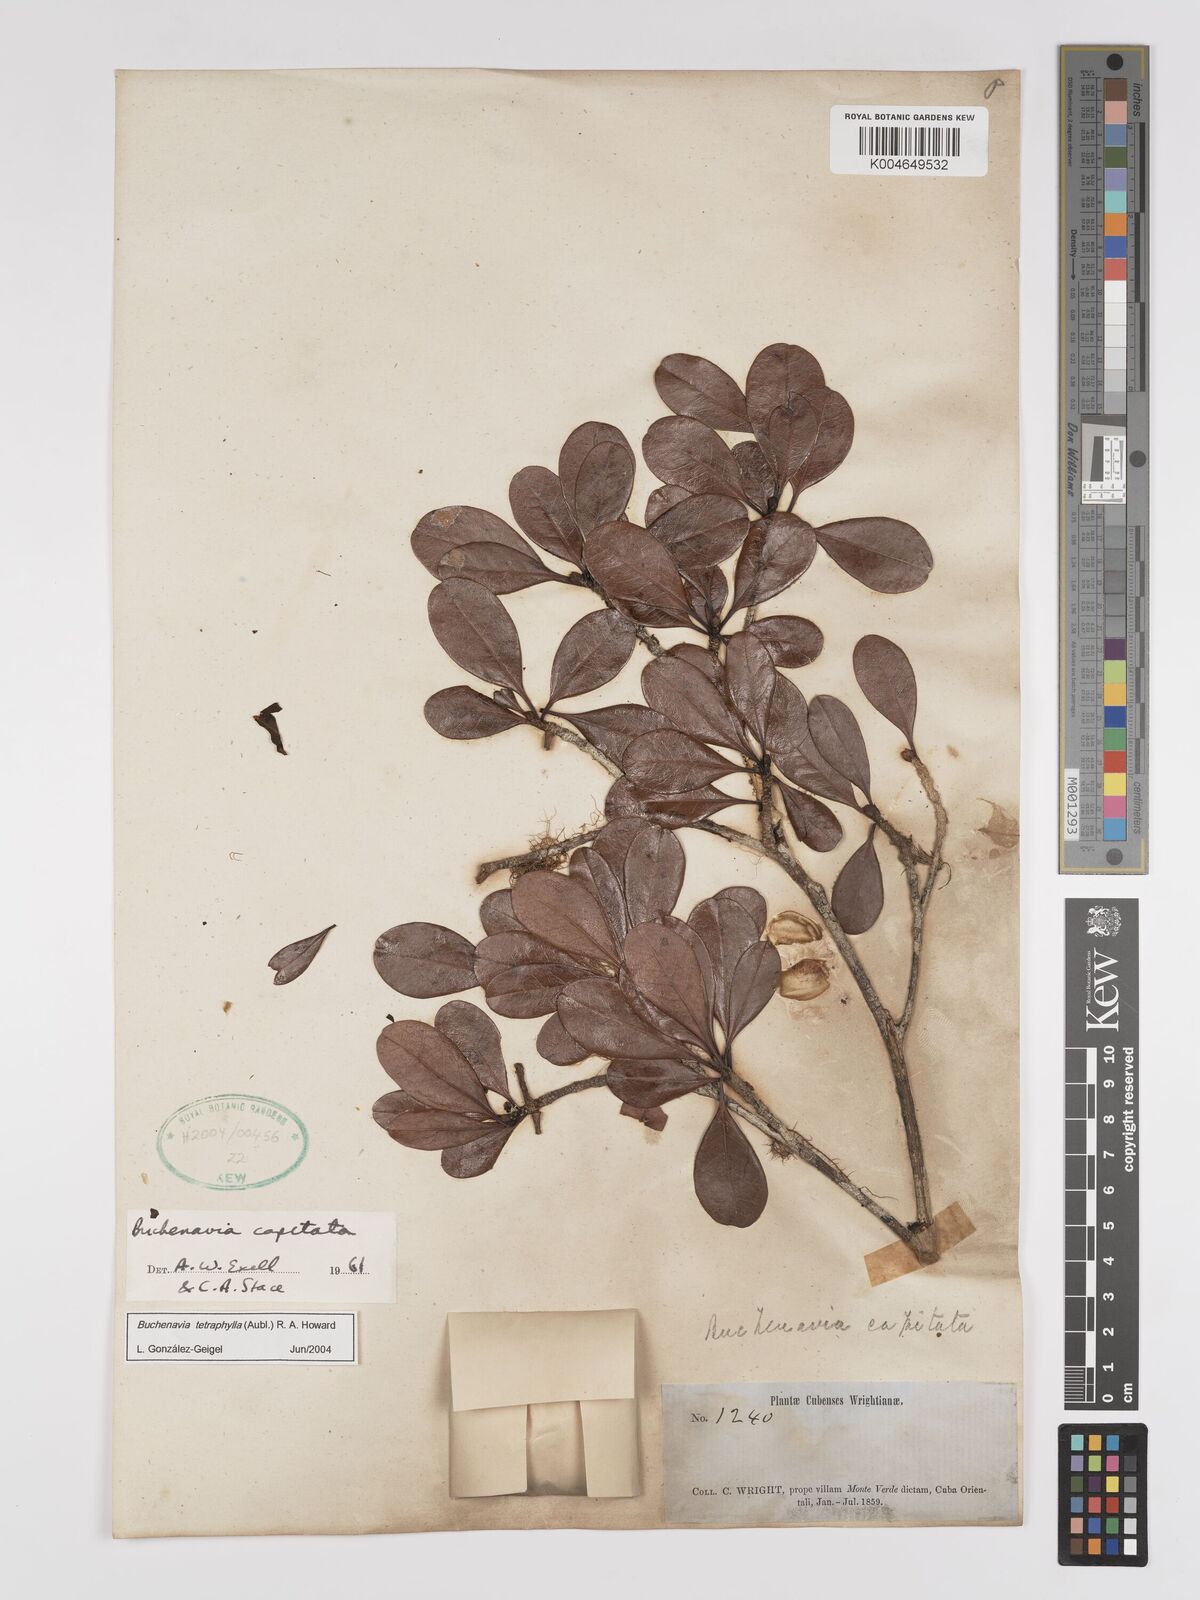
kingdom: Plantae
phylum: Tracheophyta
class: Magnoliopsida
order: Myrtales
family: Combretaceae
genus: Terminalia
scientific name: Terminalia tetraphylla
